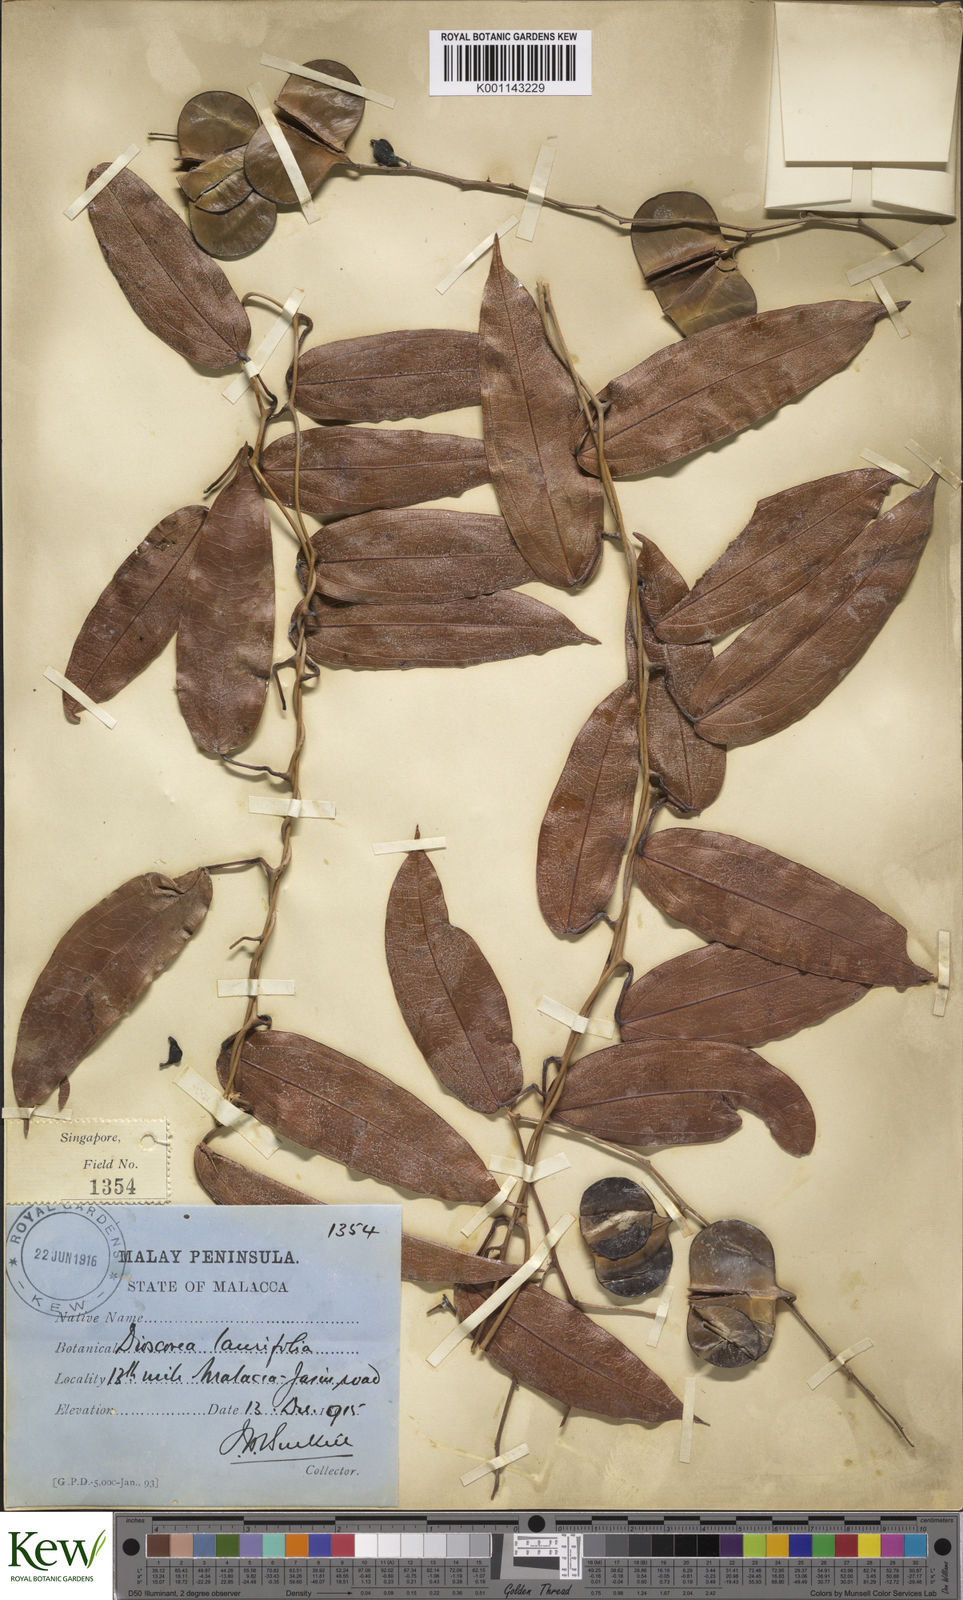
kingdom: Plantae
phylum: Tracheophyta
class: Liliopsida
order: Dioscoreales
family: Dioscoreaceae
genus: Dioscorea
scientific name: Dioscorea laurifolia
